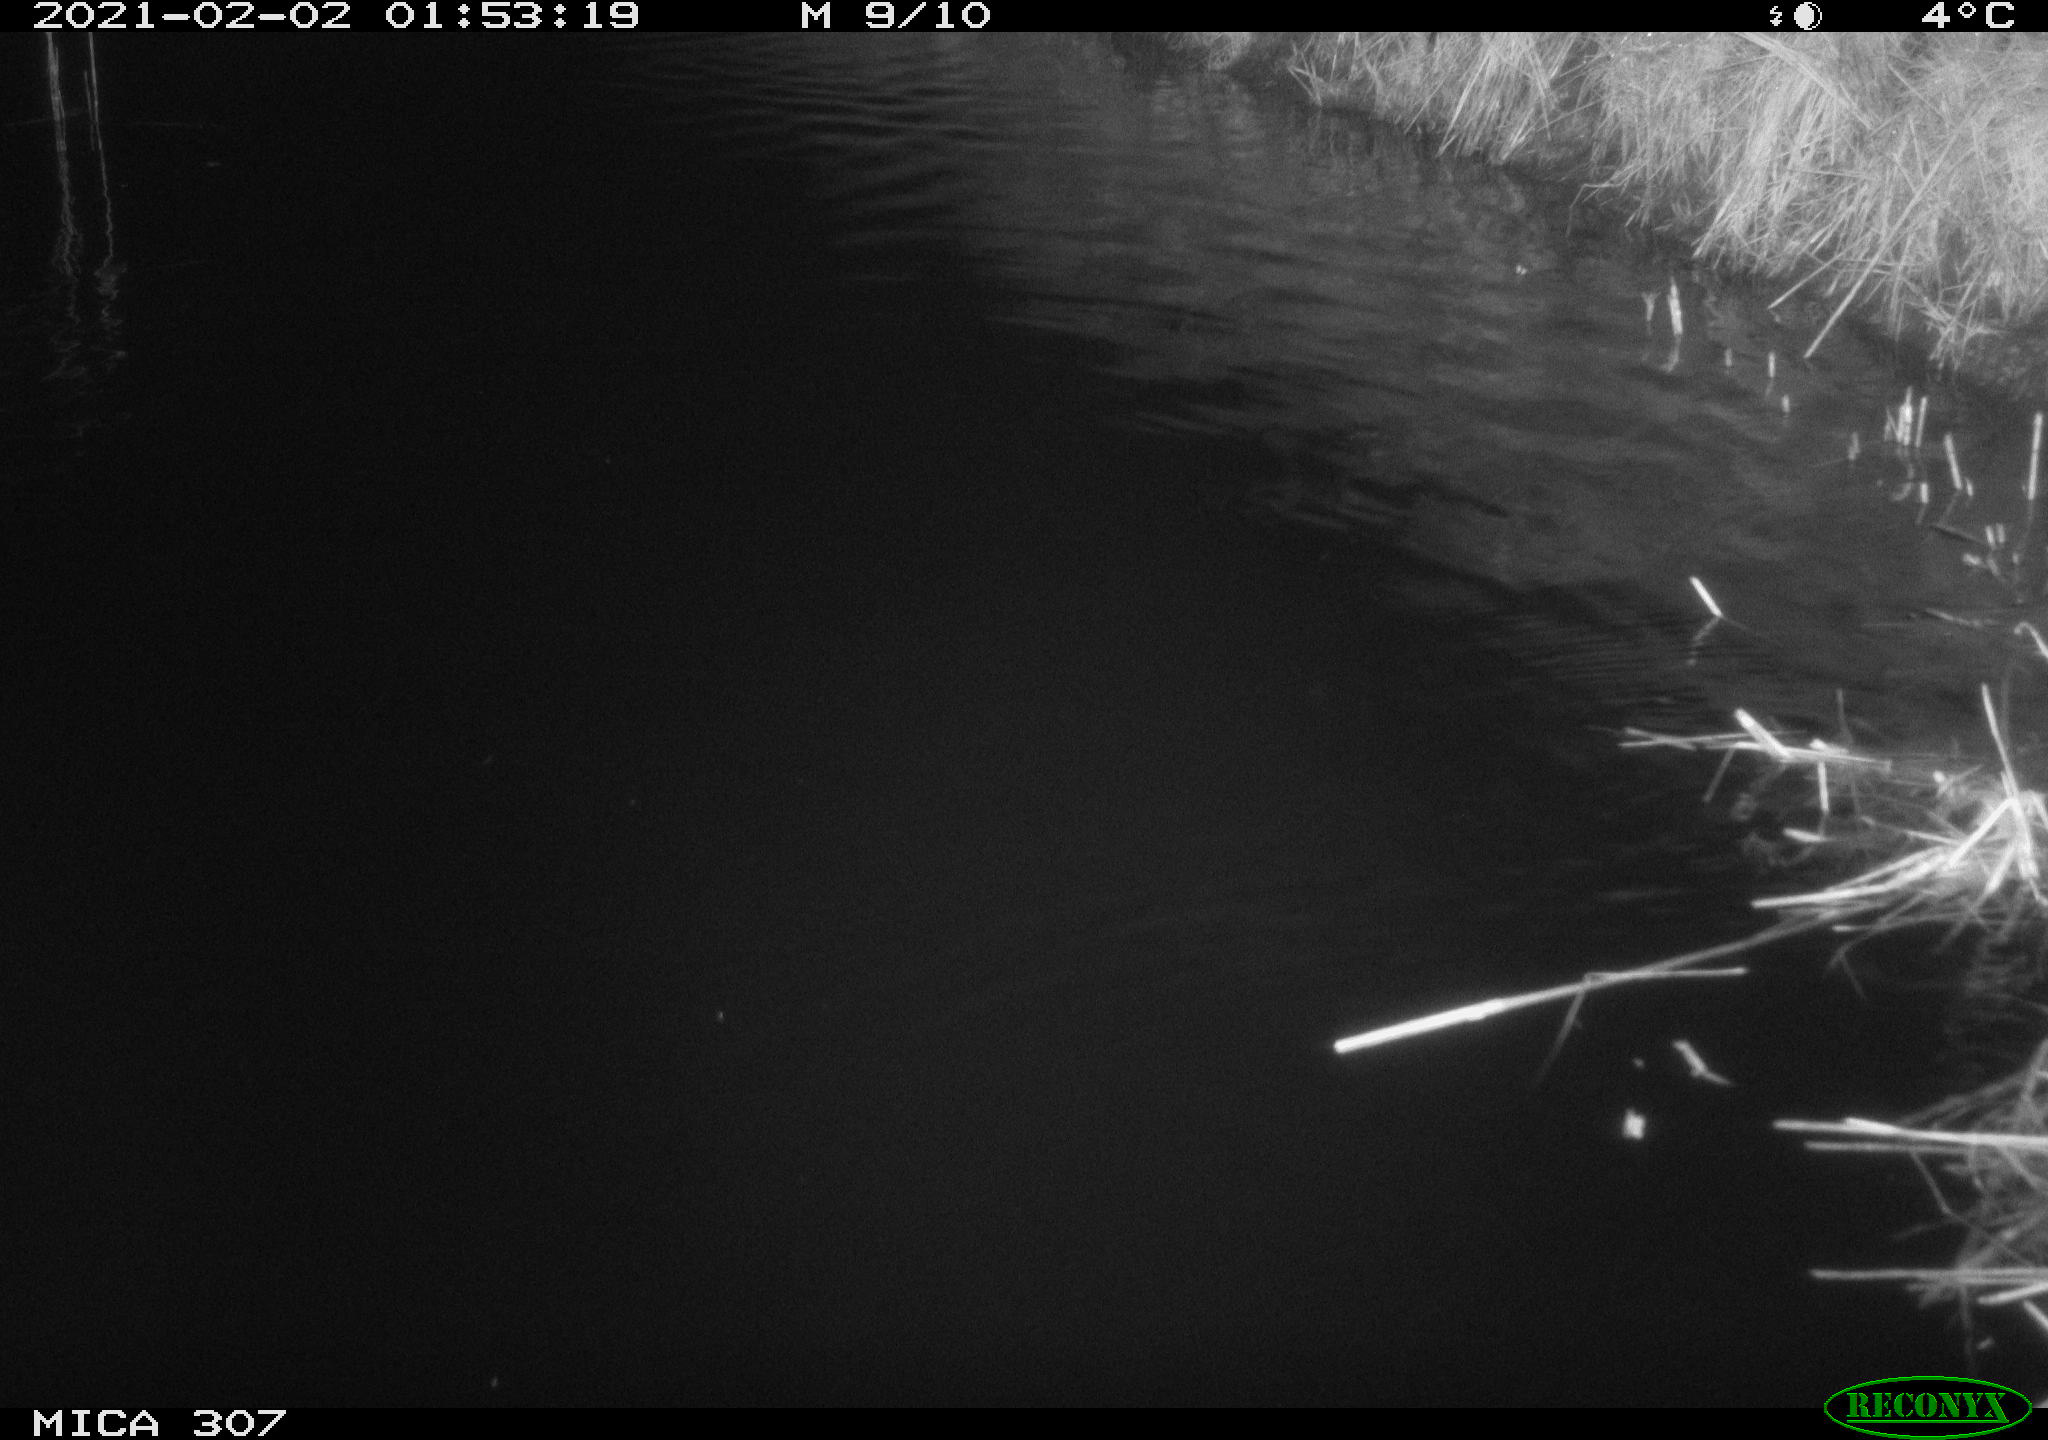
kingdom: Animalia
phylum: Chordata
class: Mammalia
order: Rodentia
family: Cricetidae
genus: Ondatra
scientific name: Ondatra zibethicus
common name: Muskrat
